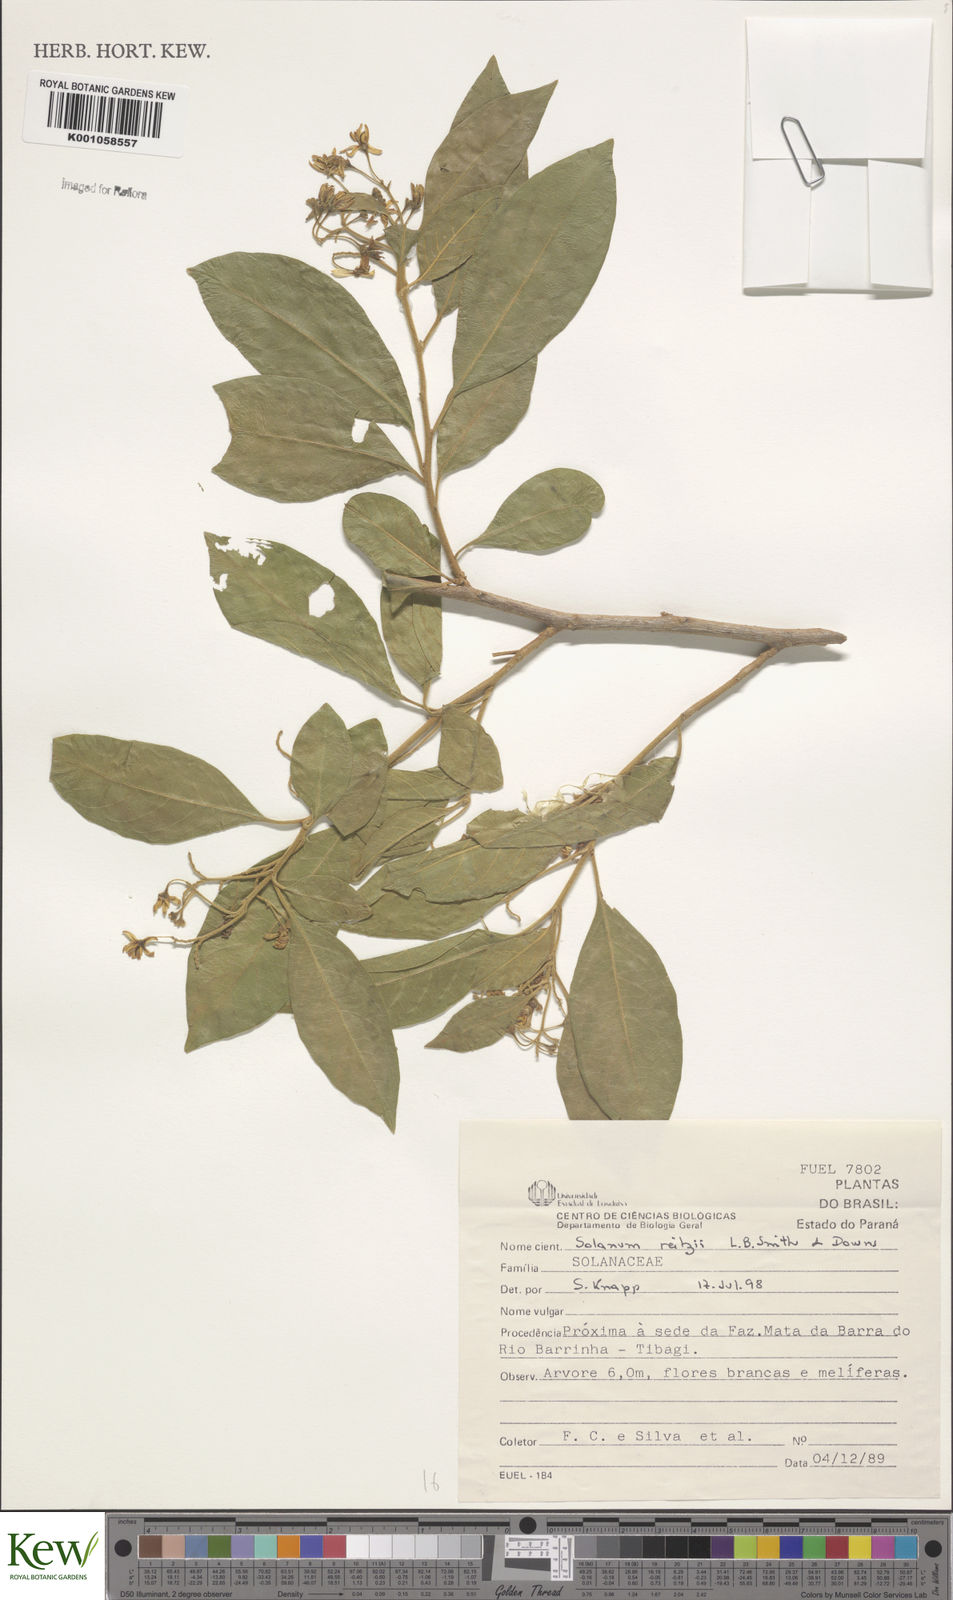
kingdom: Plantae
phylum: Tracheophyta
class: Magnoliopsida
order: Solanales
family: Solanaceae
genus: Solanum
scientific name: Solanum reitzii
